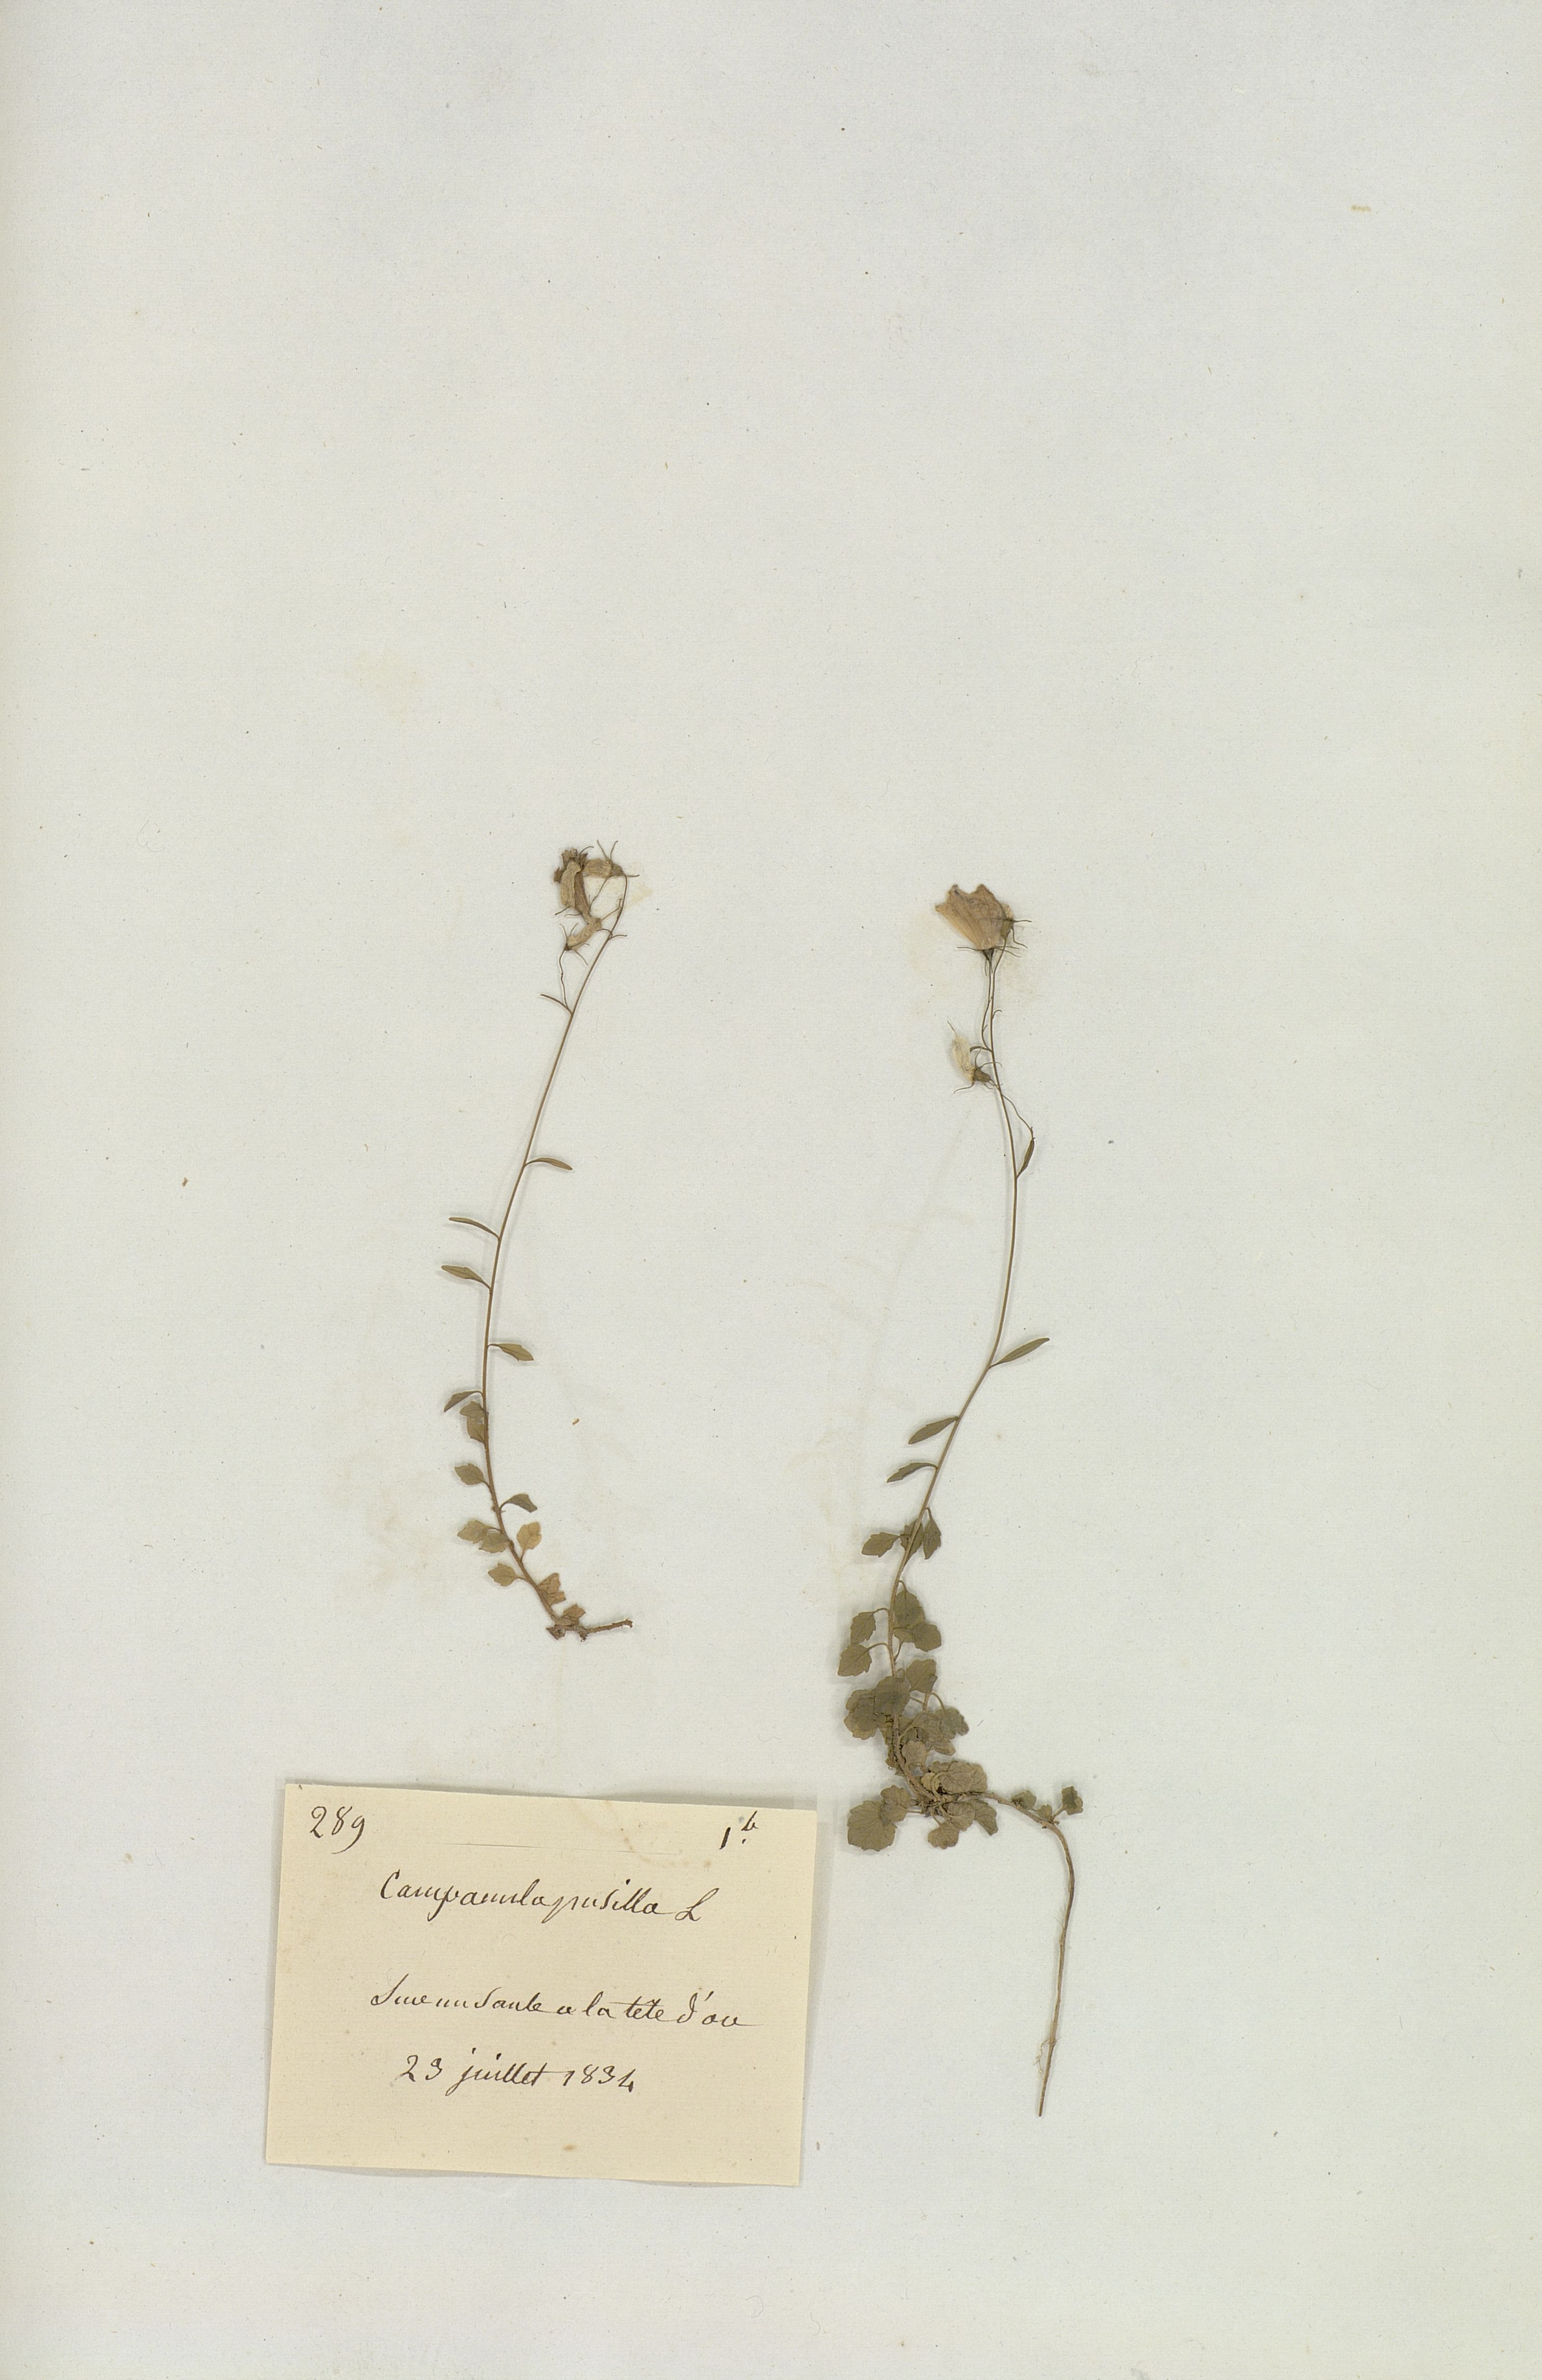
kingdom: Plantae
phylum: Tracheophyta
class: Magnoliopsida
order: Asterales
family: Campanulaceae
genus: Campanula
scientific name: Campanula cochleariifolia
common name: Fairies'-thimbles
